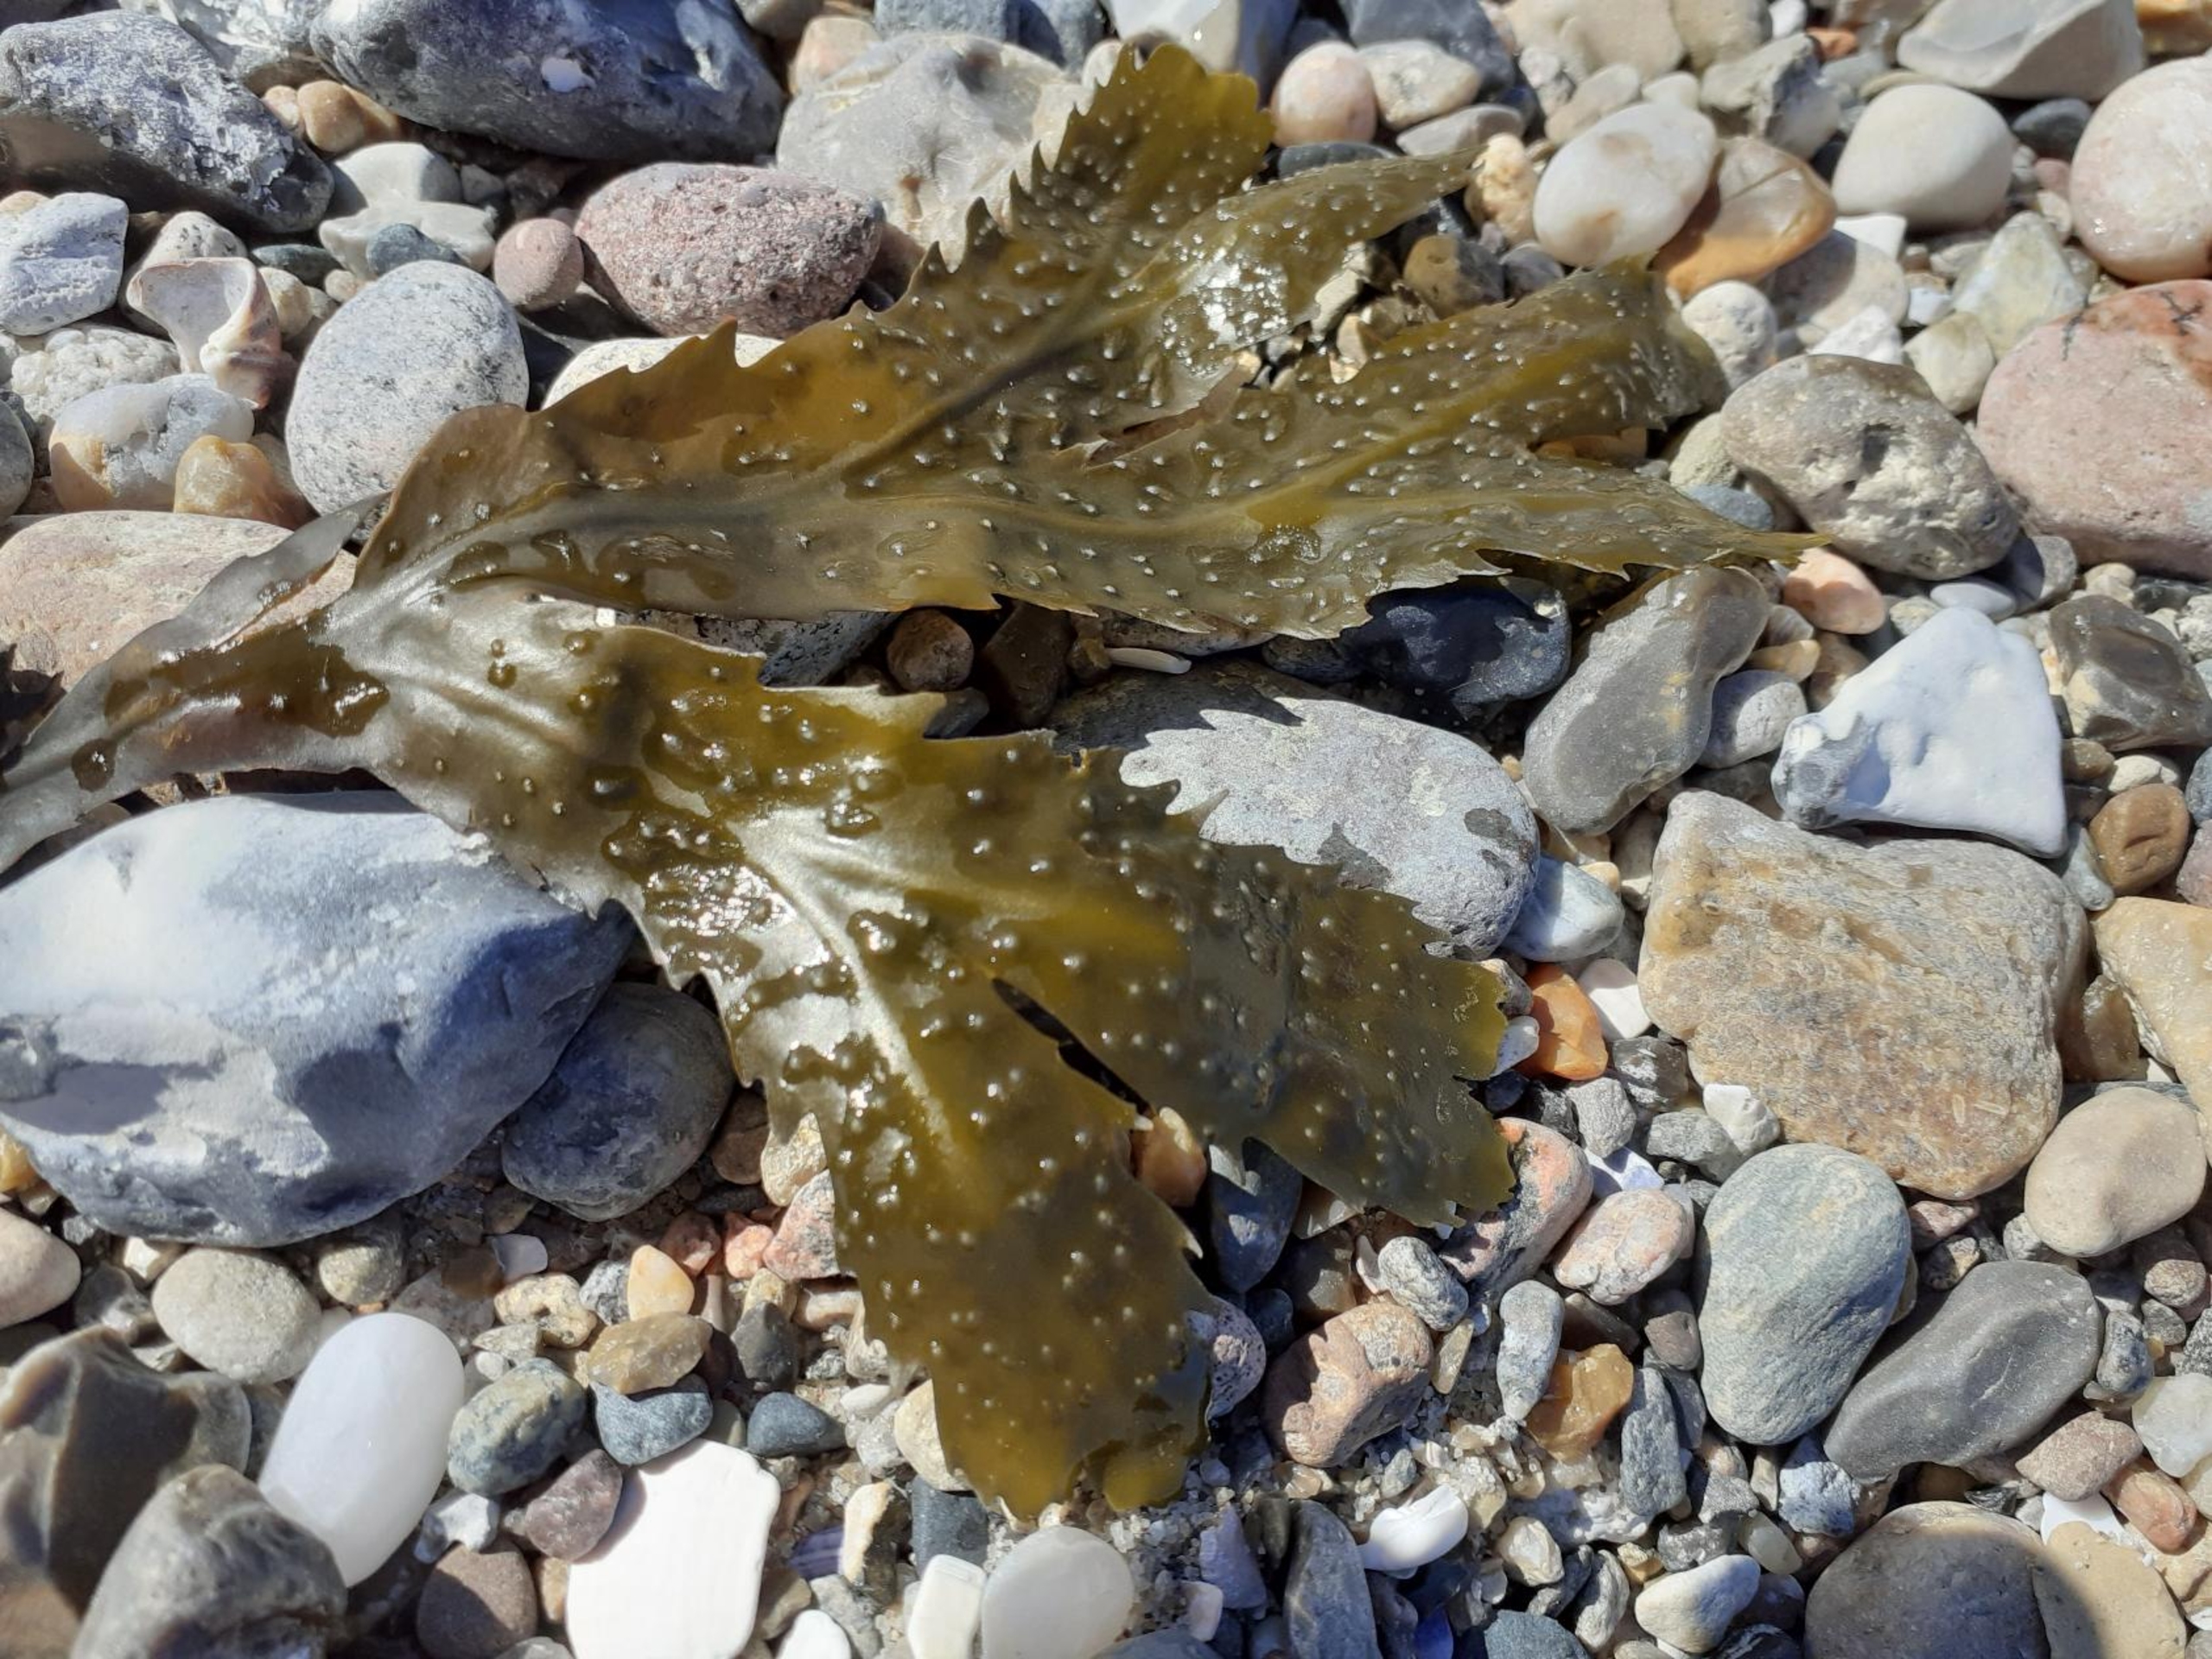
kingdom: Chromista
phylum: Ochrophyta
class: Phaeophyceae
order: Fucales
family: Fucaceae
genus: Fucus
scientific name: Fucus serratus
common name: Savtang
